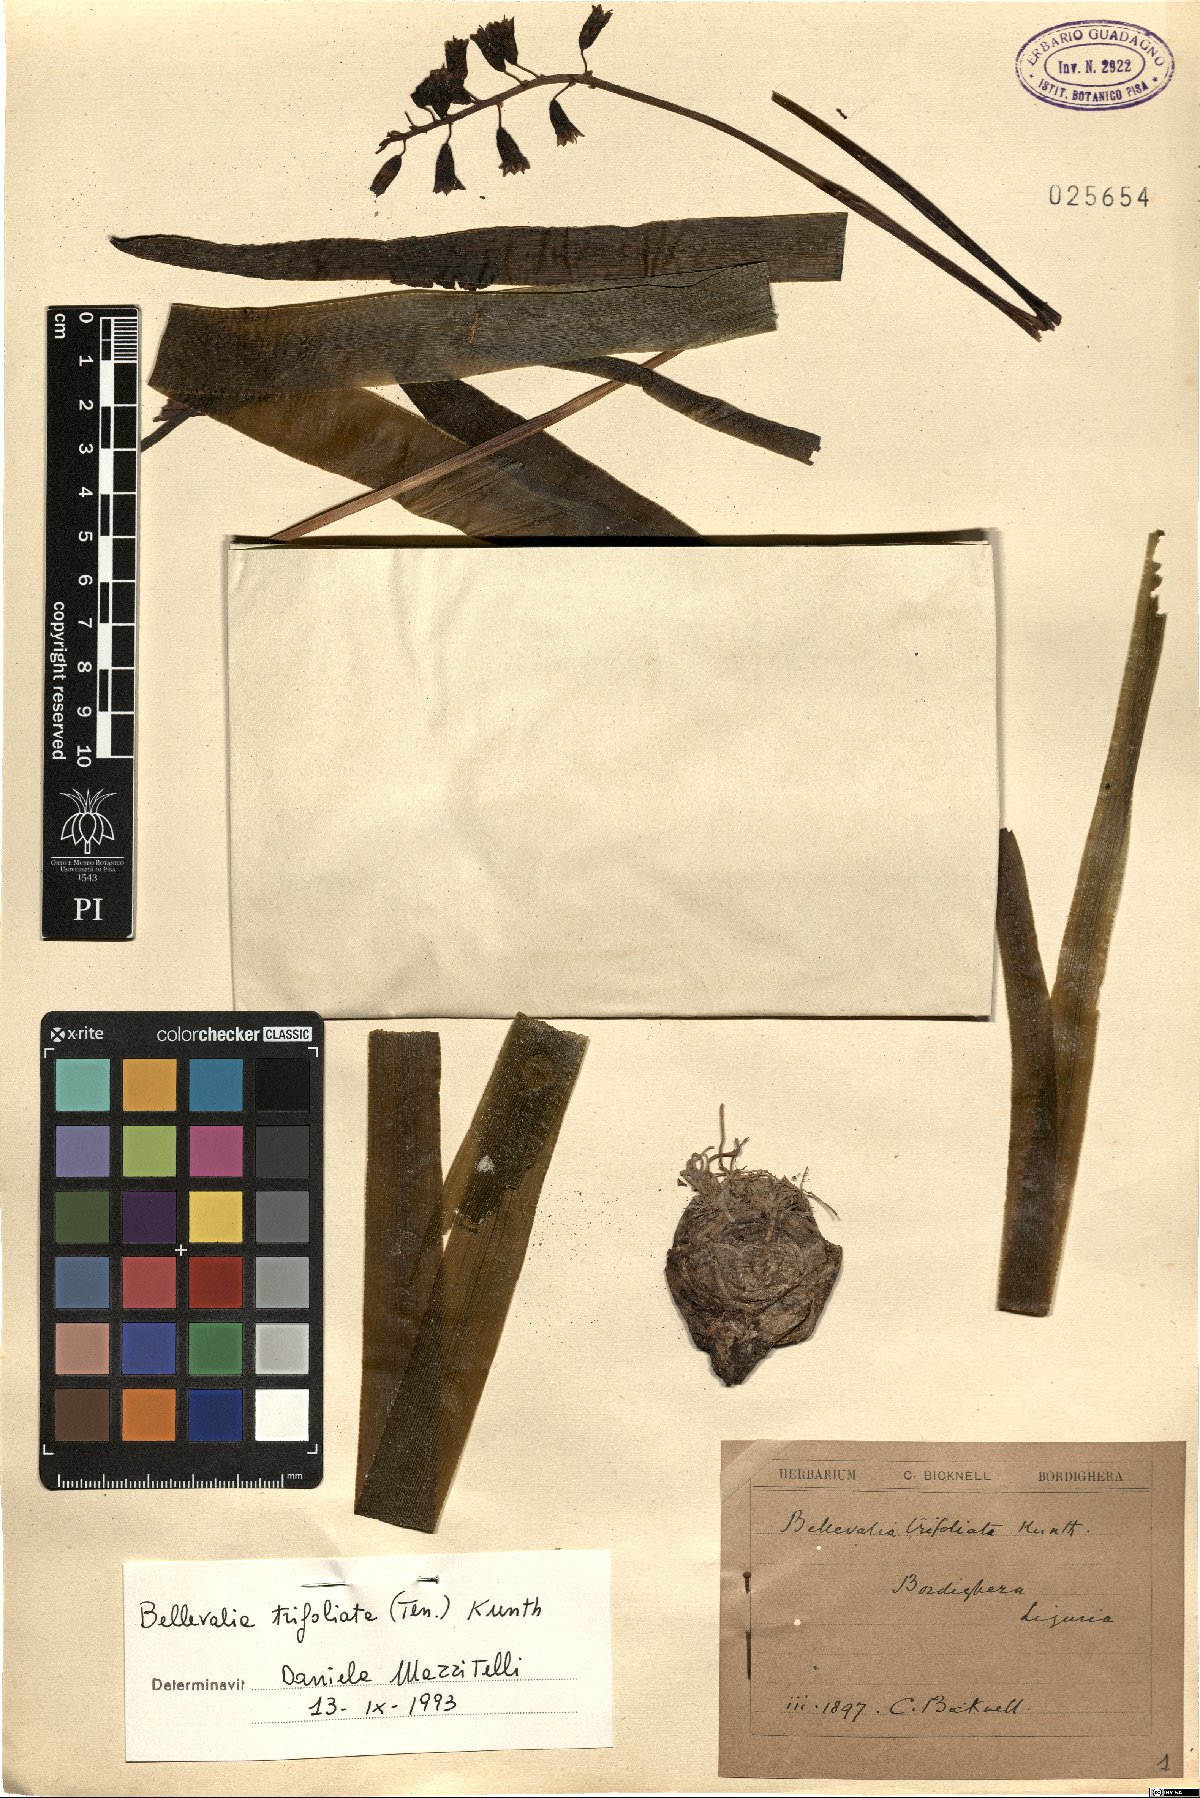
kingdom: Plantae
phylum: Tracheophyta
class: Liliopsida
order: Asparagales
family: Asparagaceae
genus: Bellevalia
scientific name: Bellevalia trifoliata
